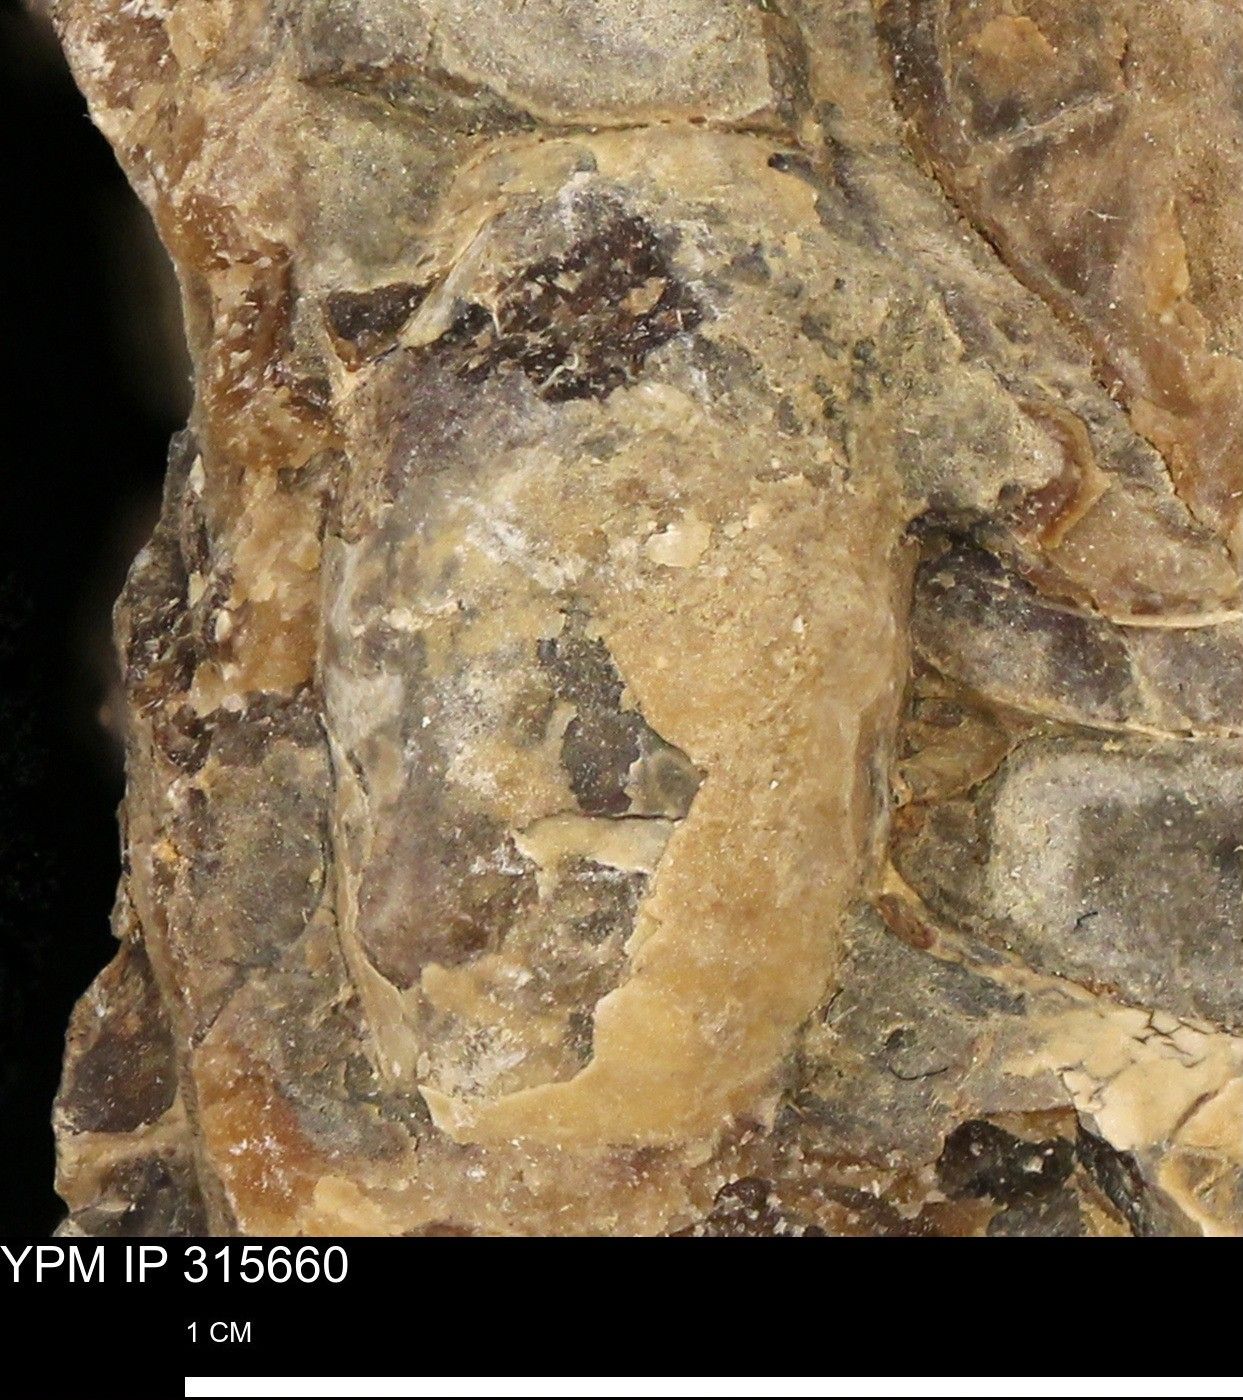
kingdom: Animalia
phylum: Mollusca
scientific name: Mollusca
